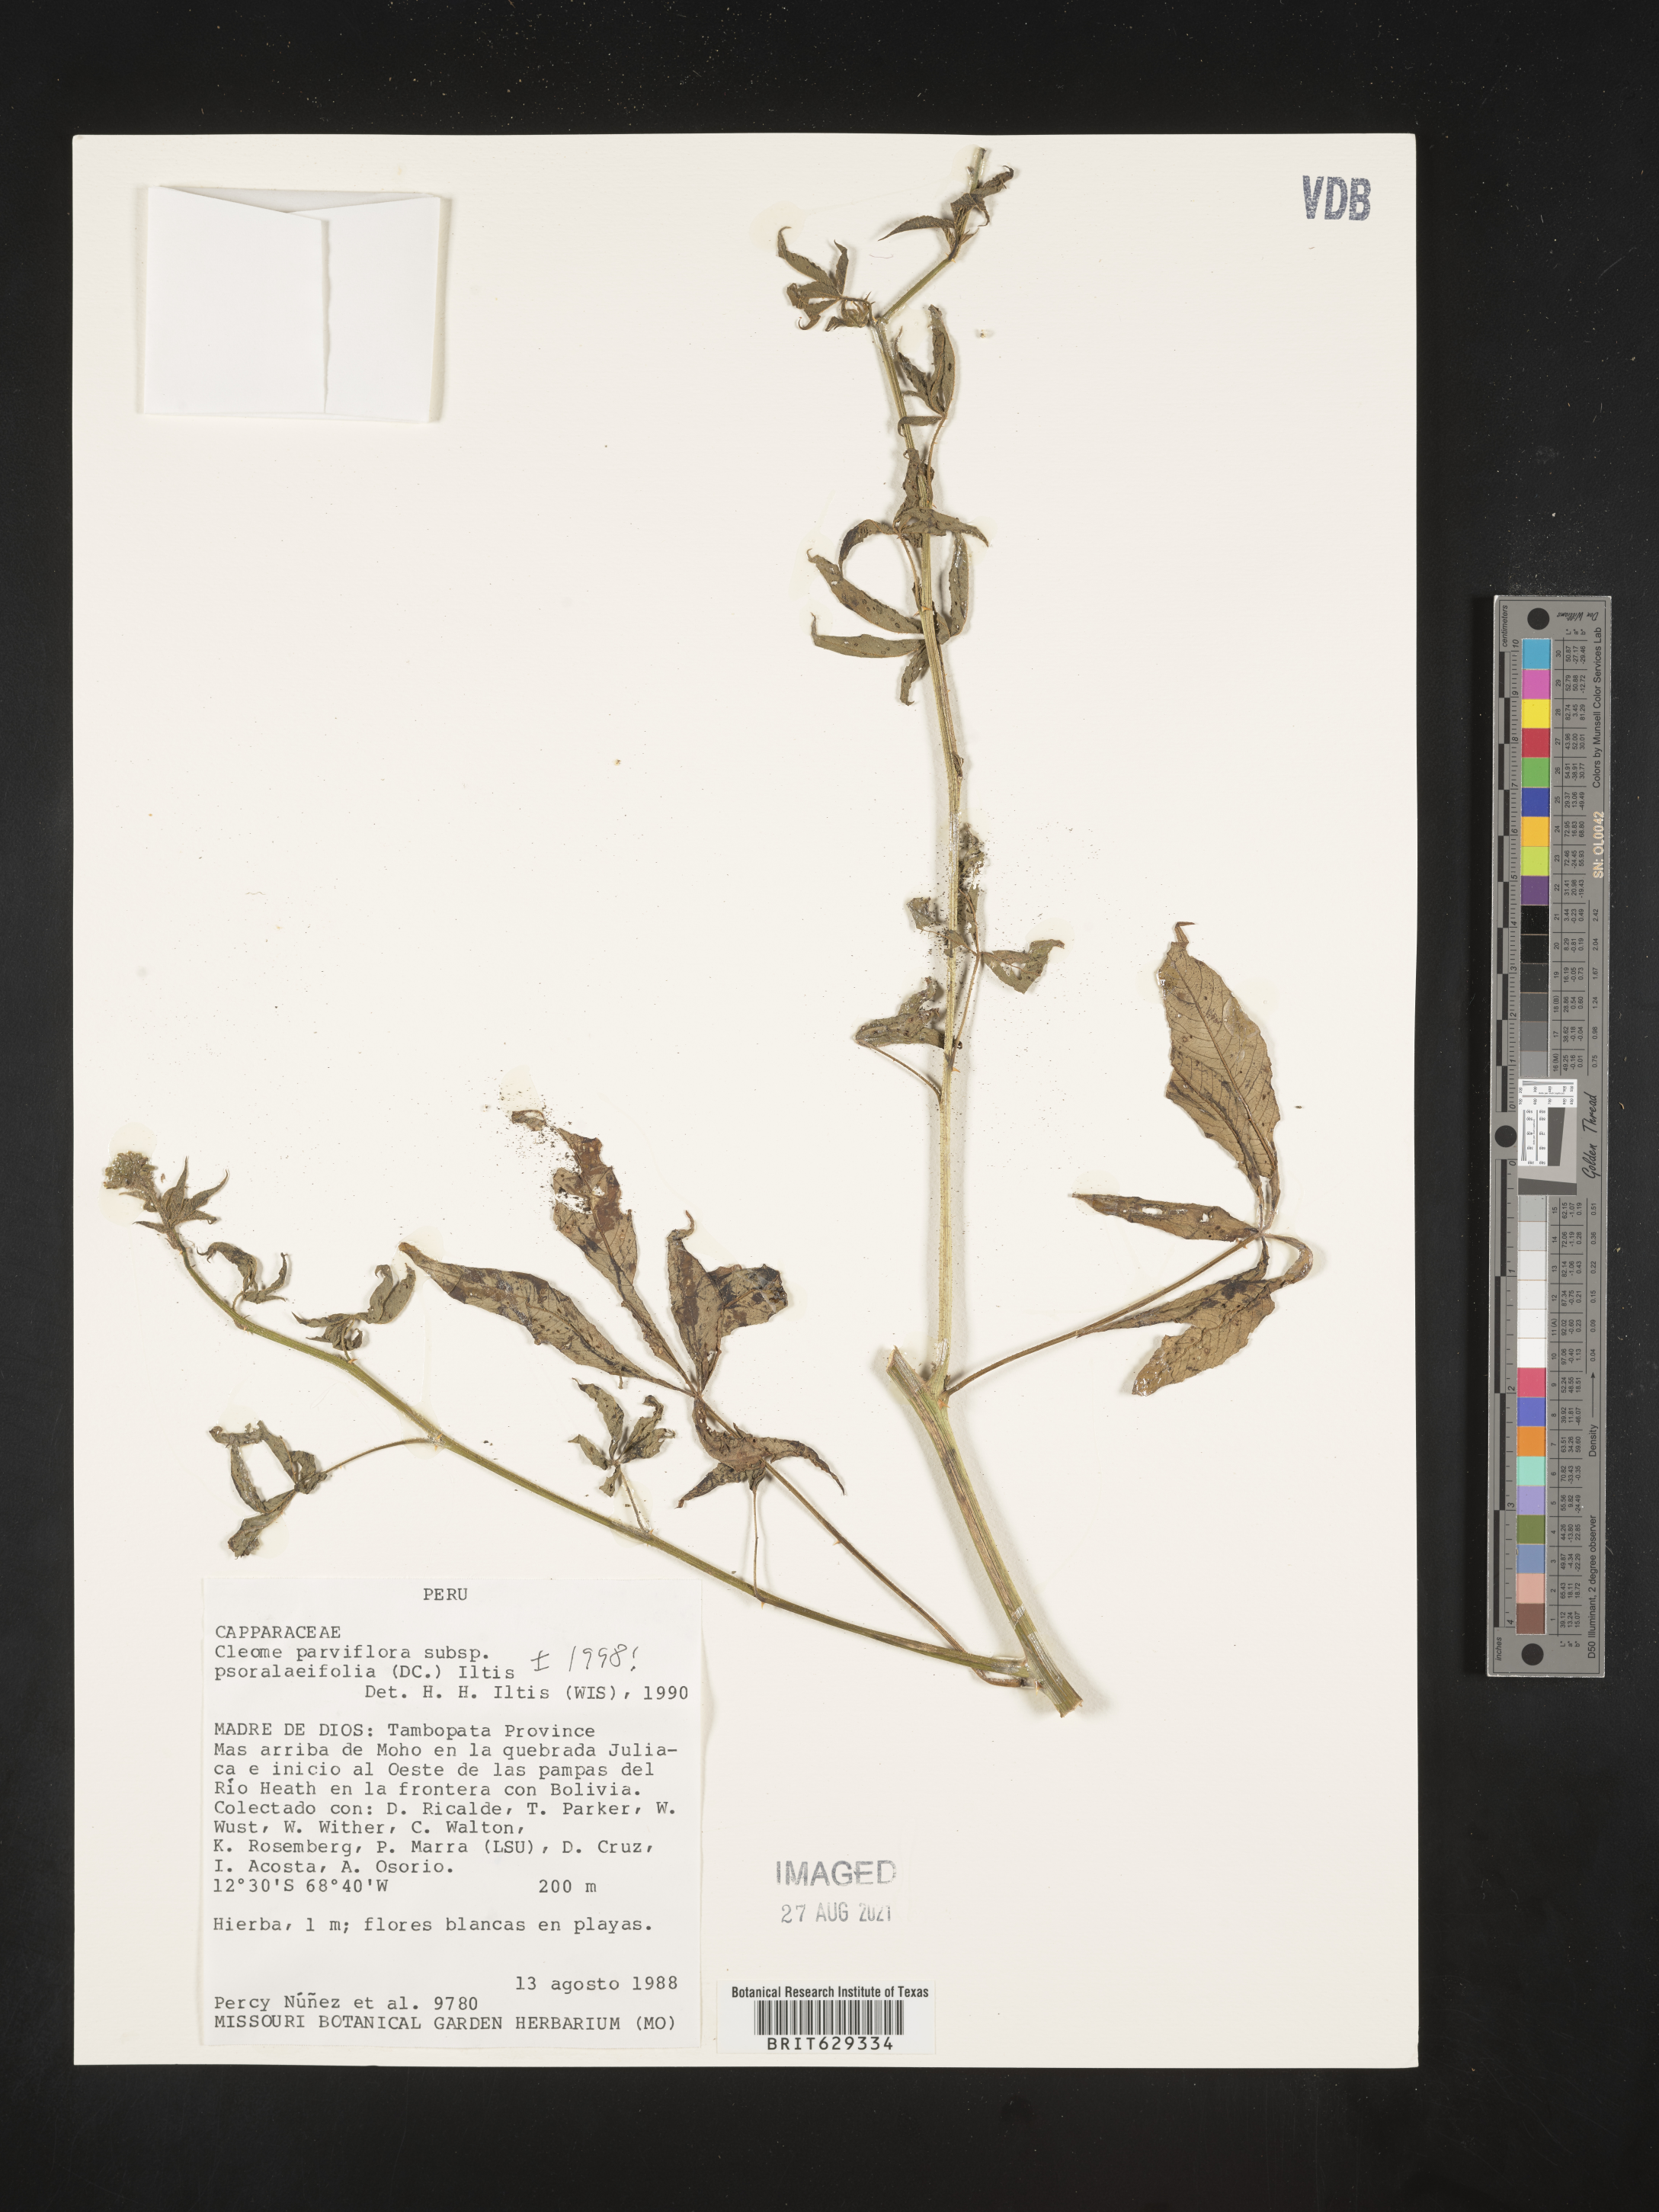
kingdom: Plantae
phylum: Tracheophyta
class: Magnoliopsida
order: Brassicales
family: Cleomaceae
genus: Tarenaya
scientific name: Tarenaya psoraleifolia
